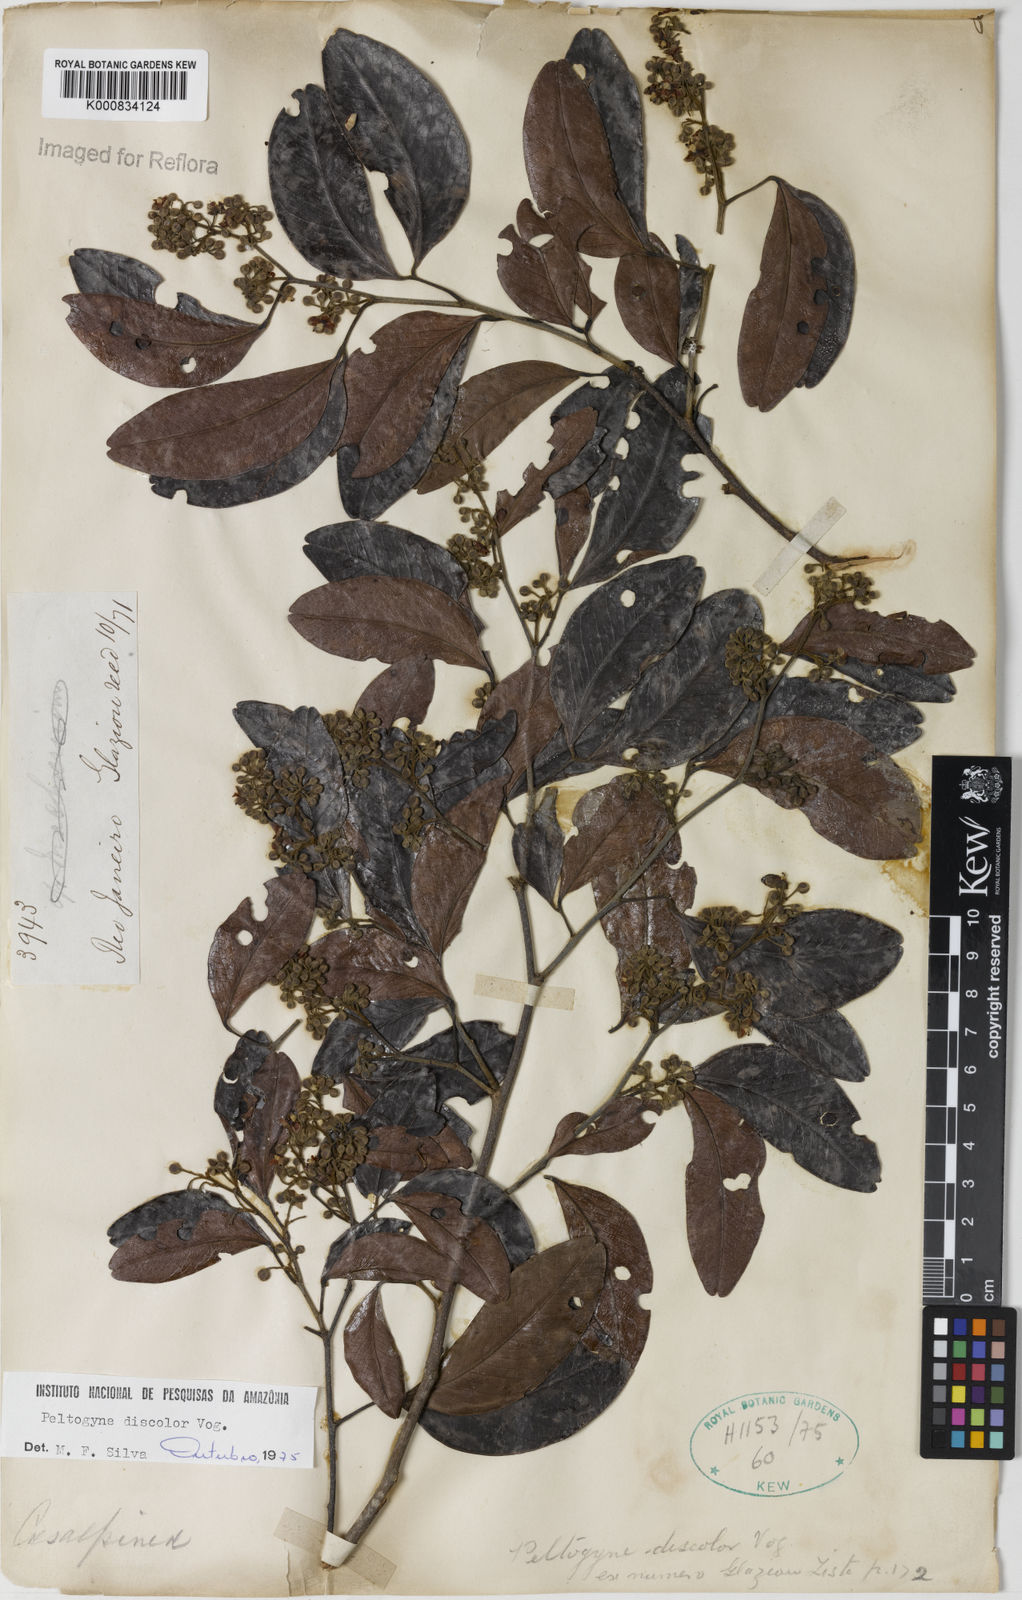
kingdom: Plantae
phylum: Tracheophyta
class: Magnoliopsida
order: Fabales
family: Fabaceae
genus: Peltogyne
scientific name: Peltogyne discolor
